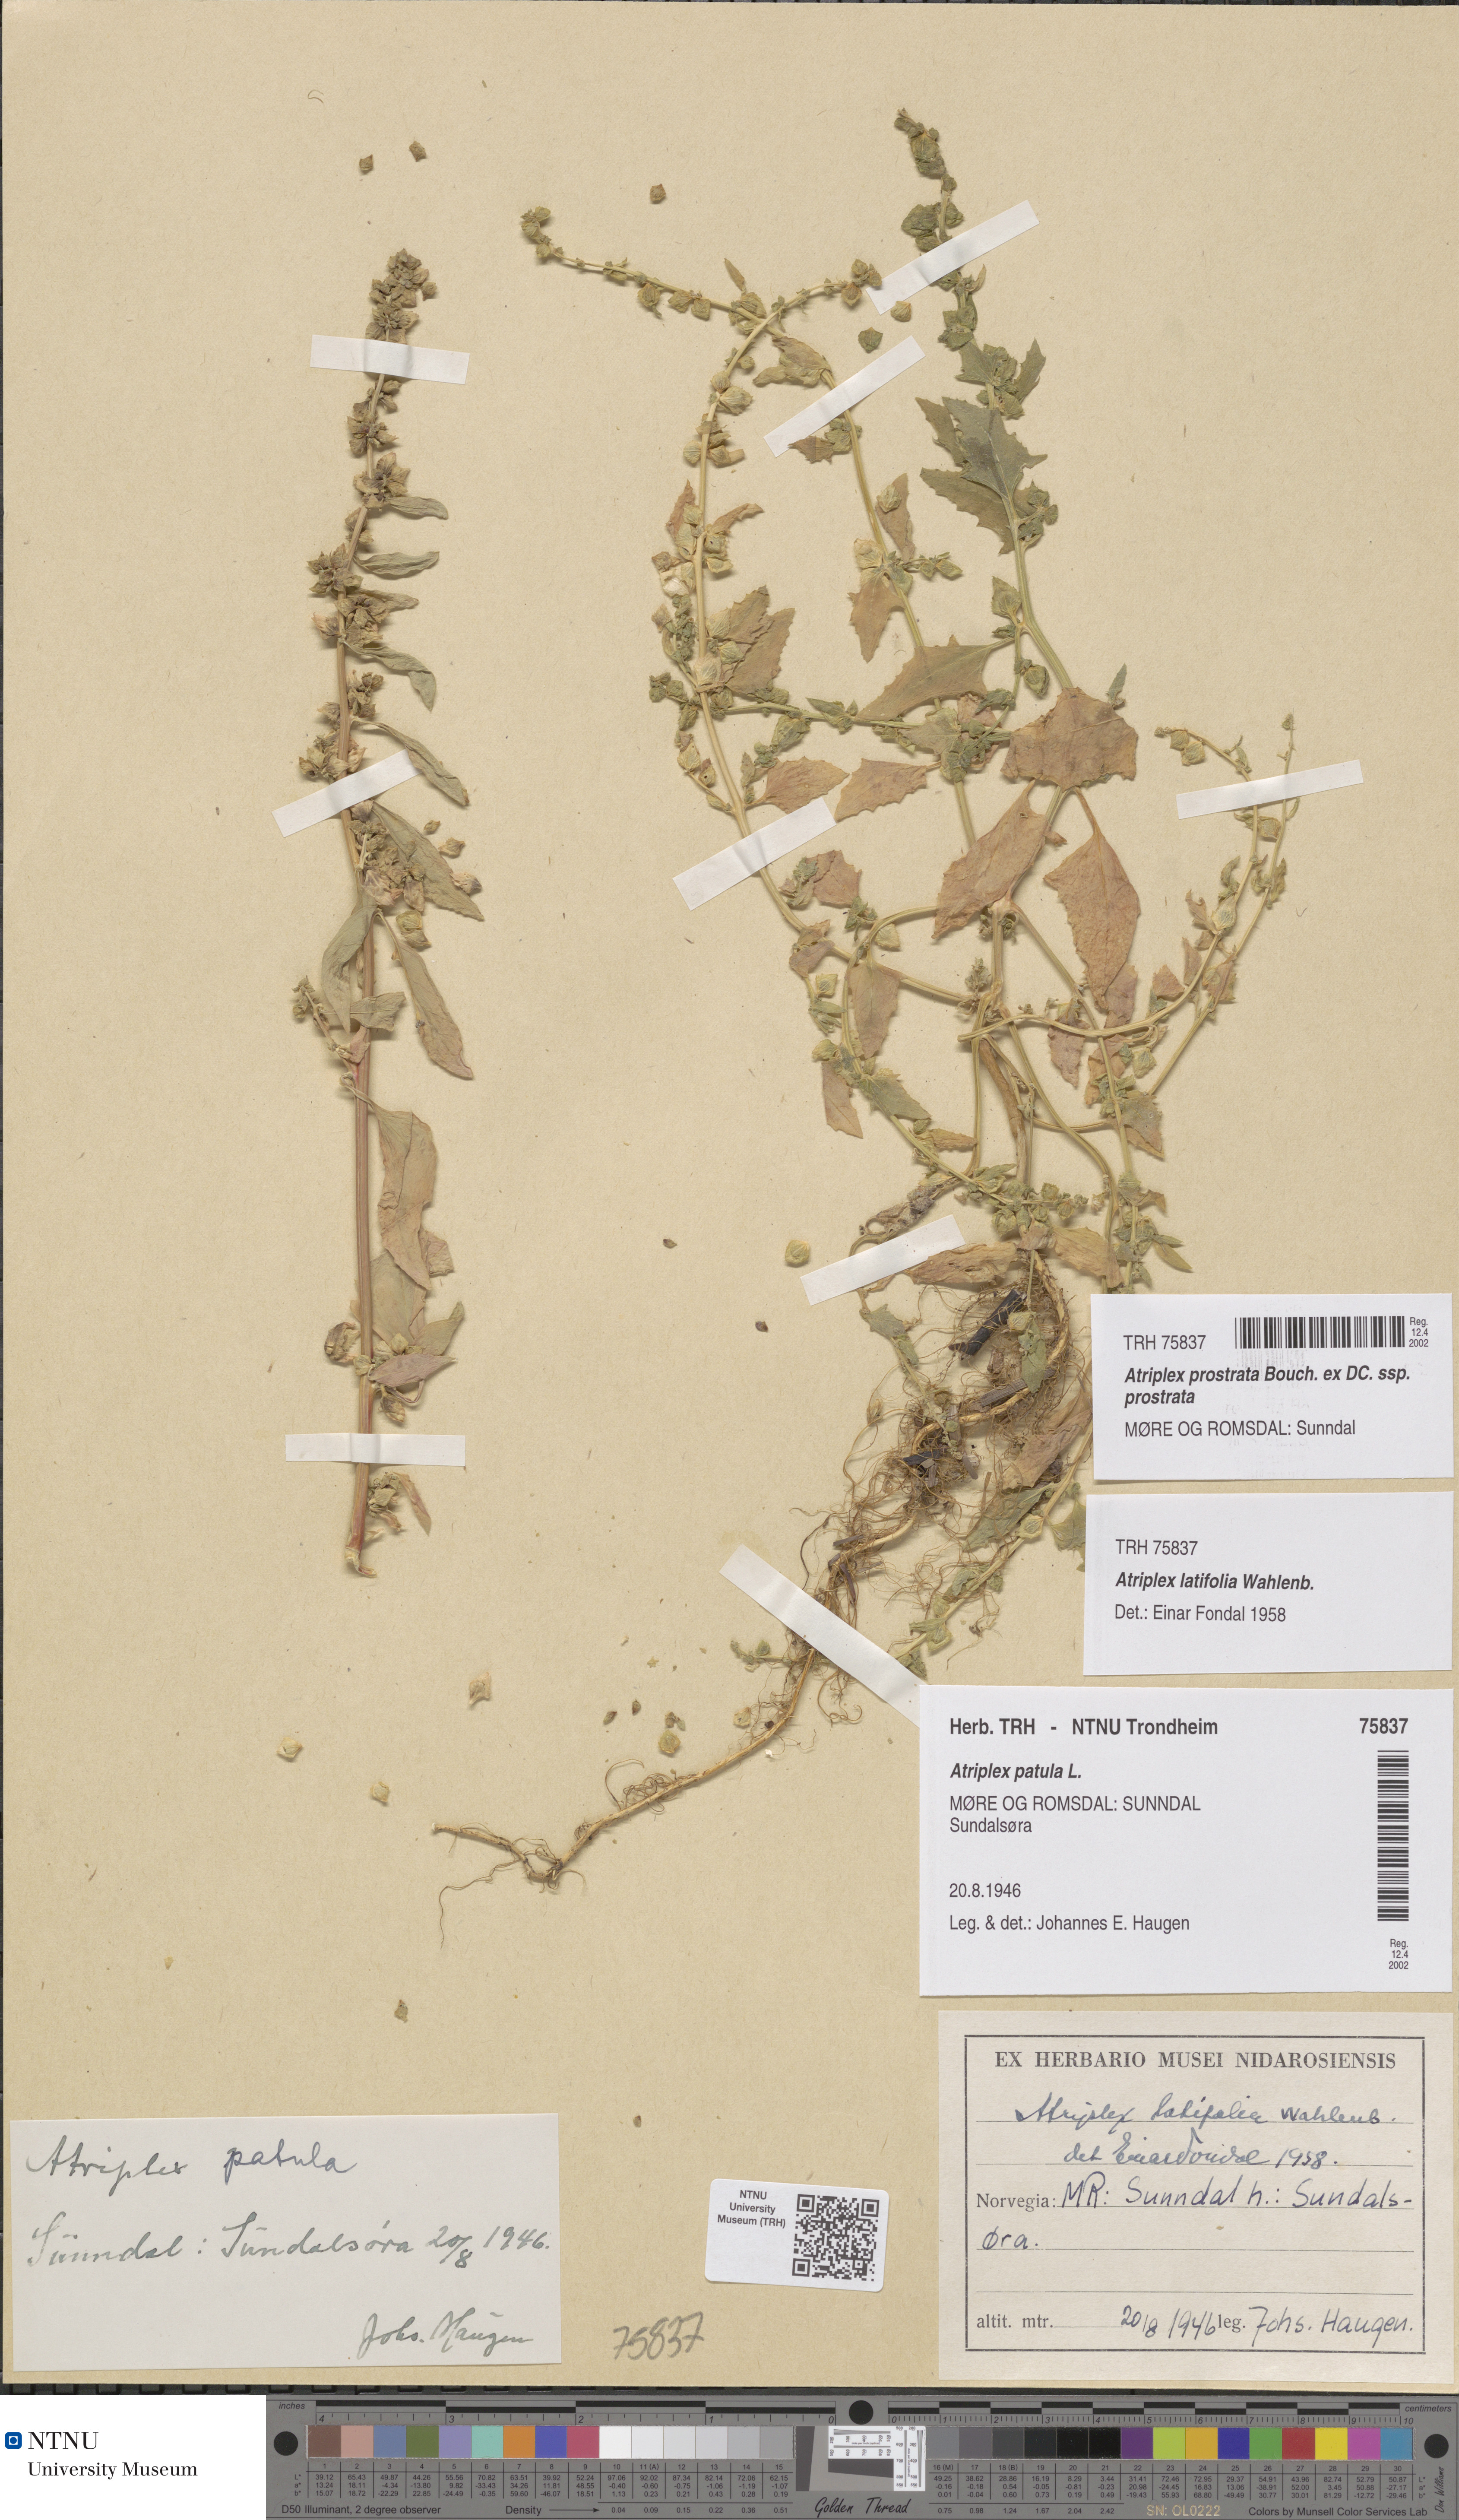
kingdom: Plantae
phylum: Tracheophyta
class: Magnoliopsida
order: Caryophyllales
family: Amaranthaceae
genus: Atriplex
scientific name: Atriplex prostrata
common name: Spear-leaved orache
